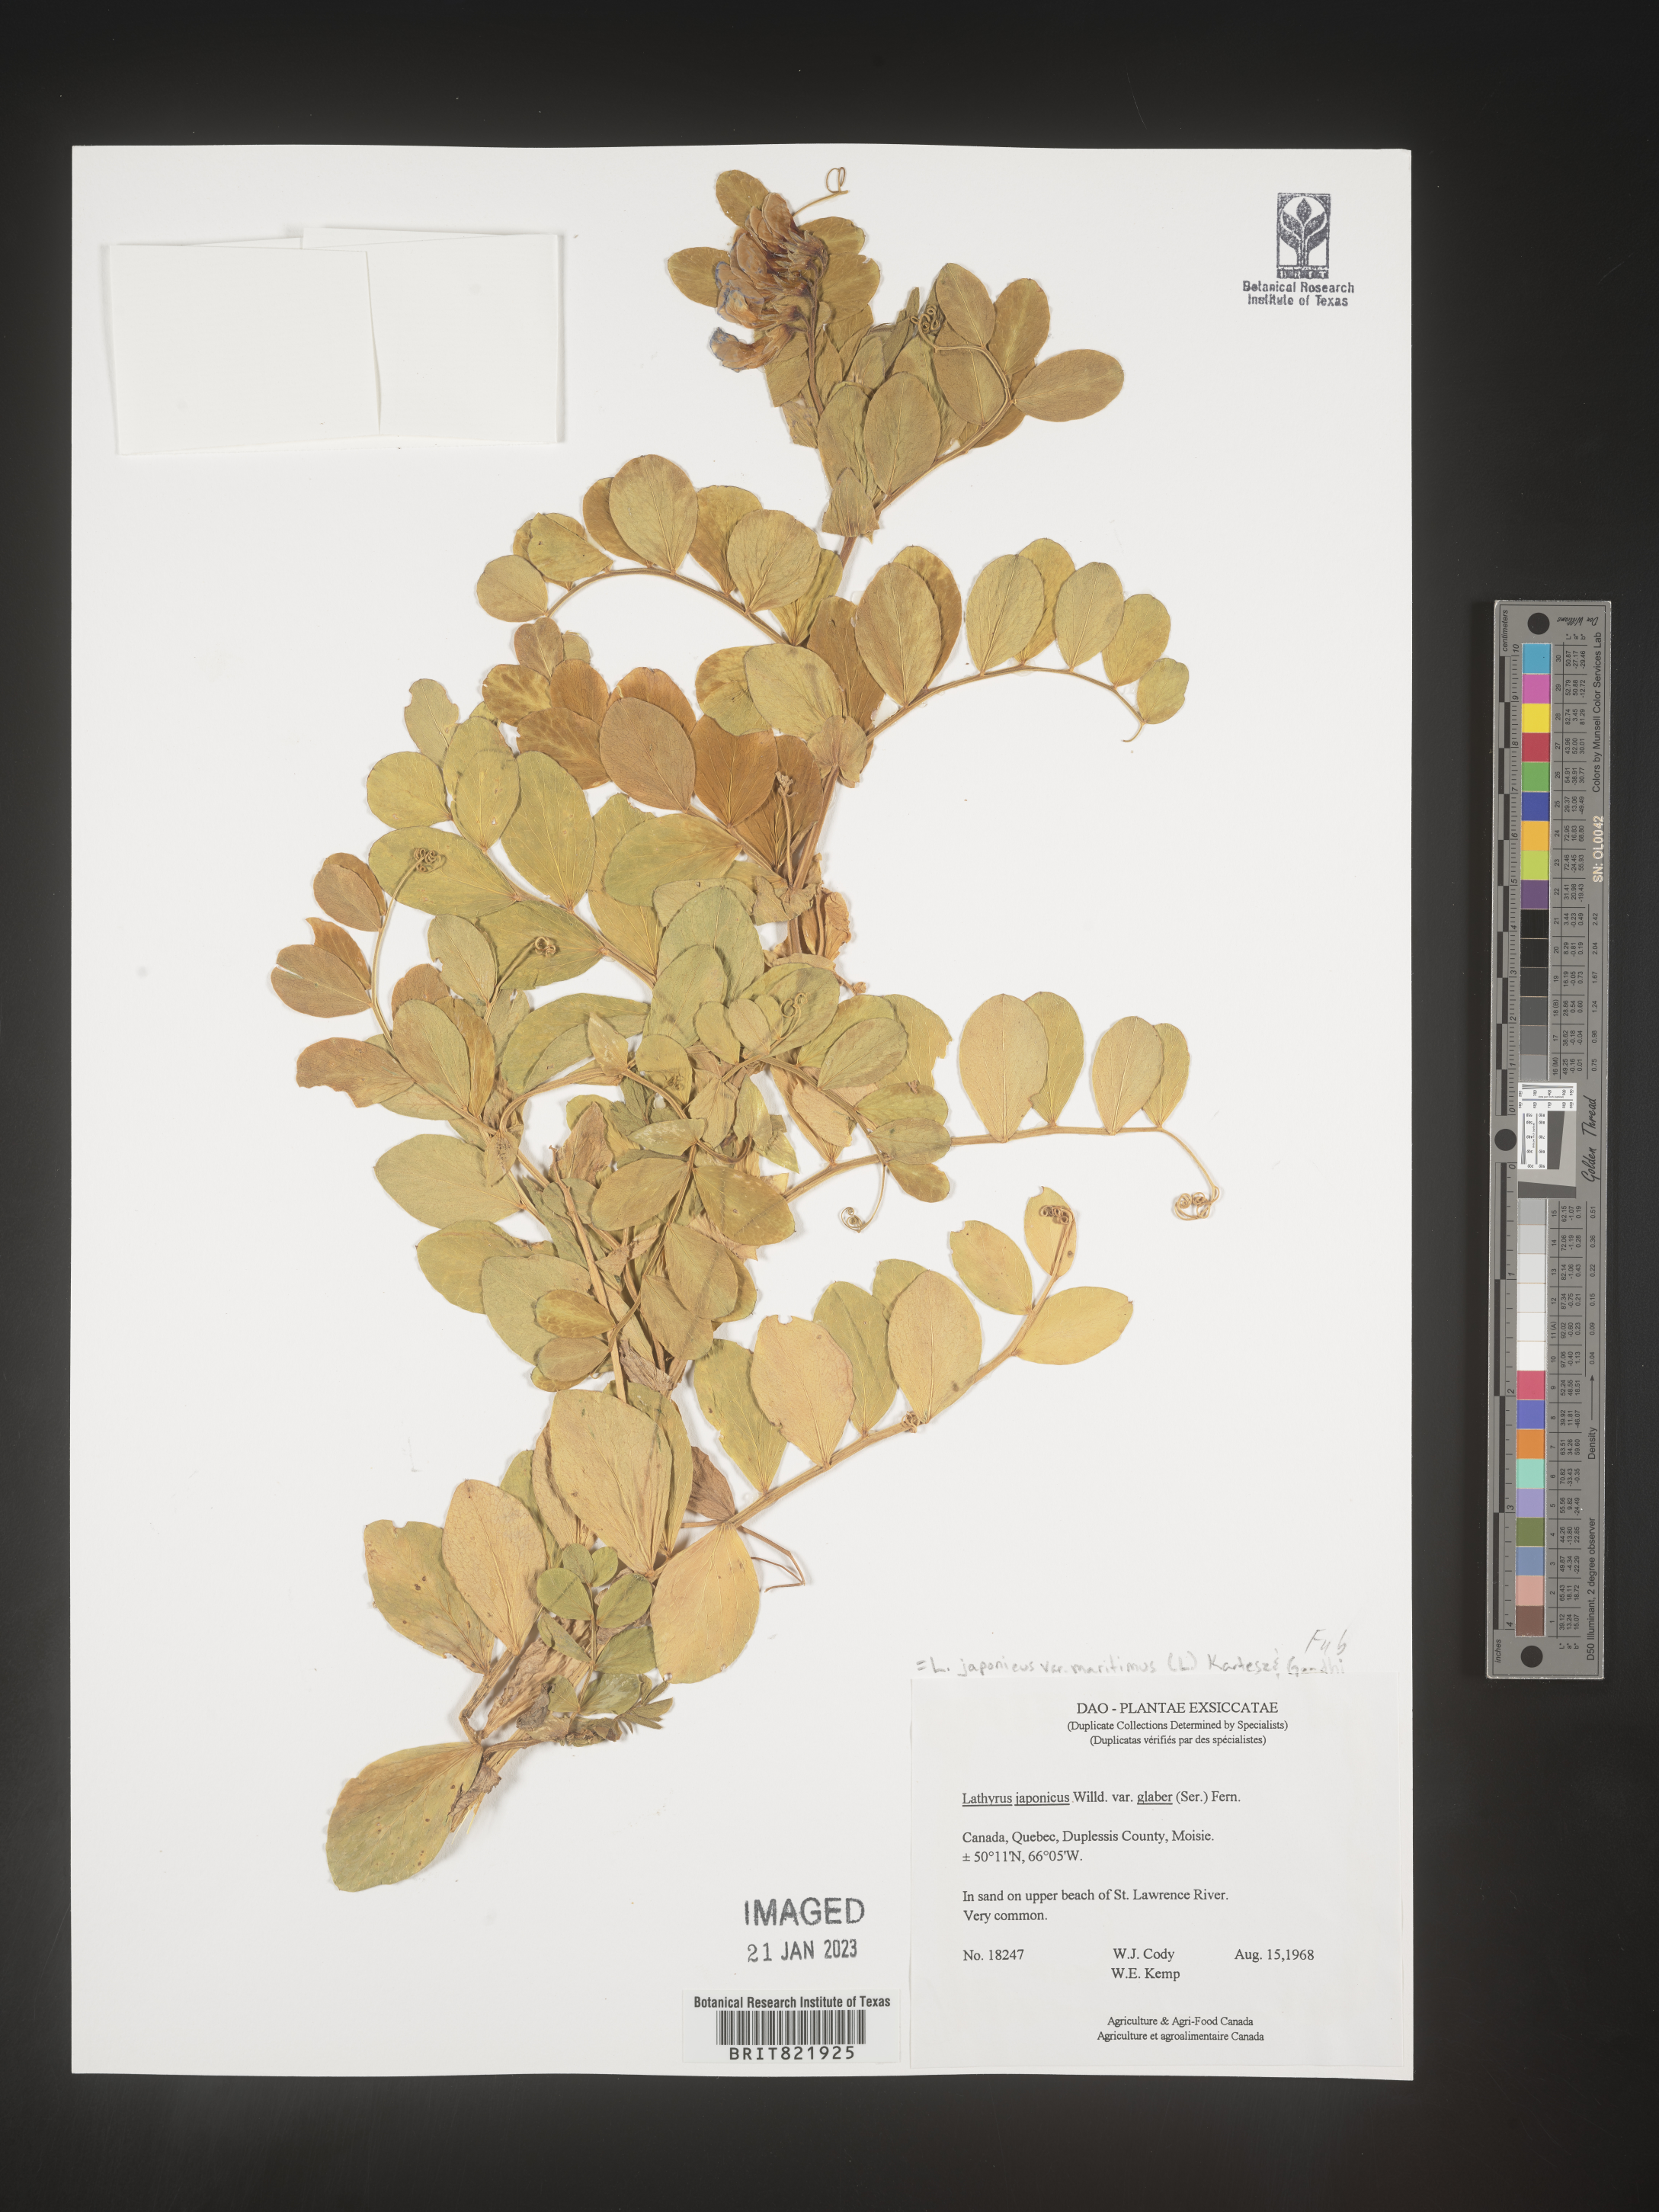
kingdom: Plantae
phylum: Tracheophyta
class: Magnoliopsida
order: Fabales
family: Fabaceae
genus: Lathyrus
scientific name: Lathyrus
